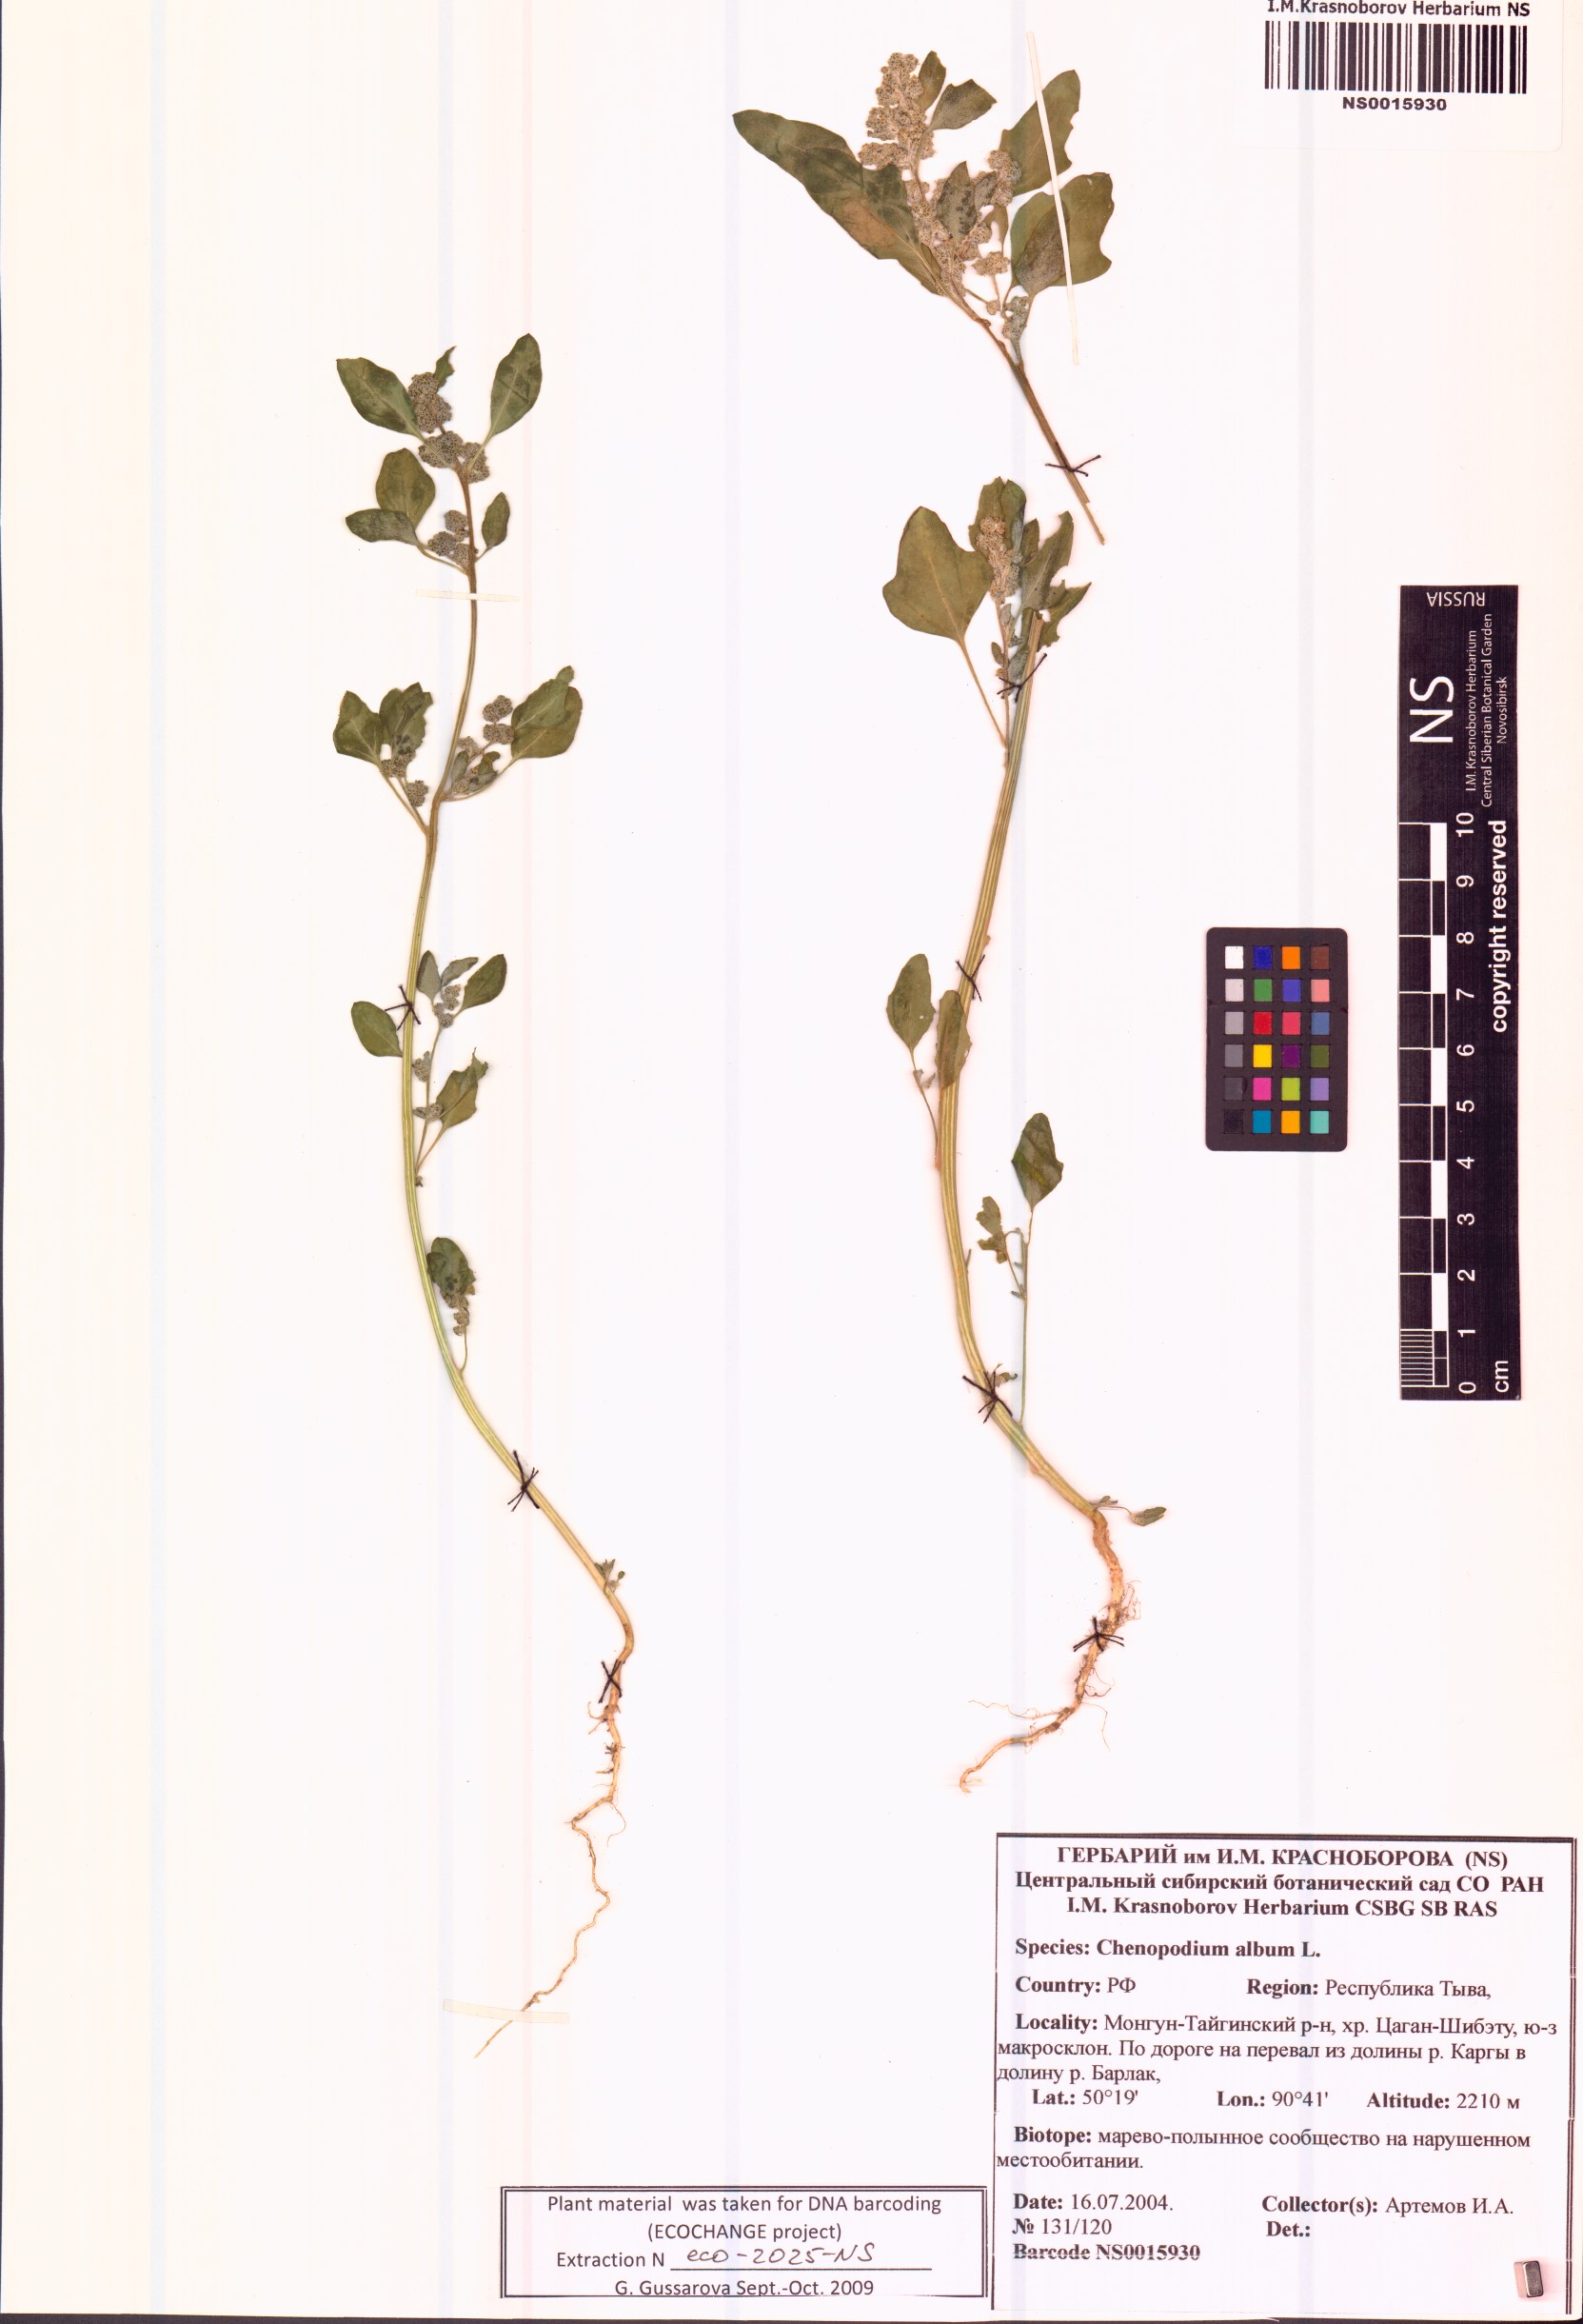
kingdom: Plantae
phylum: Tracheophyta
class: Magnoliopsida
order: Caryophyllales
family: Amaranthaceae
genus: Chenopodium
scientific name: Chenopodium album
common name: Fat-hen
